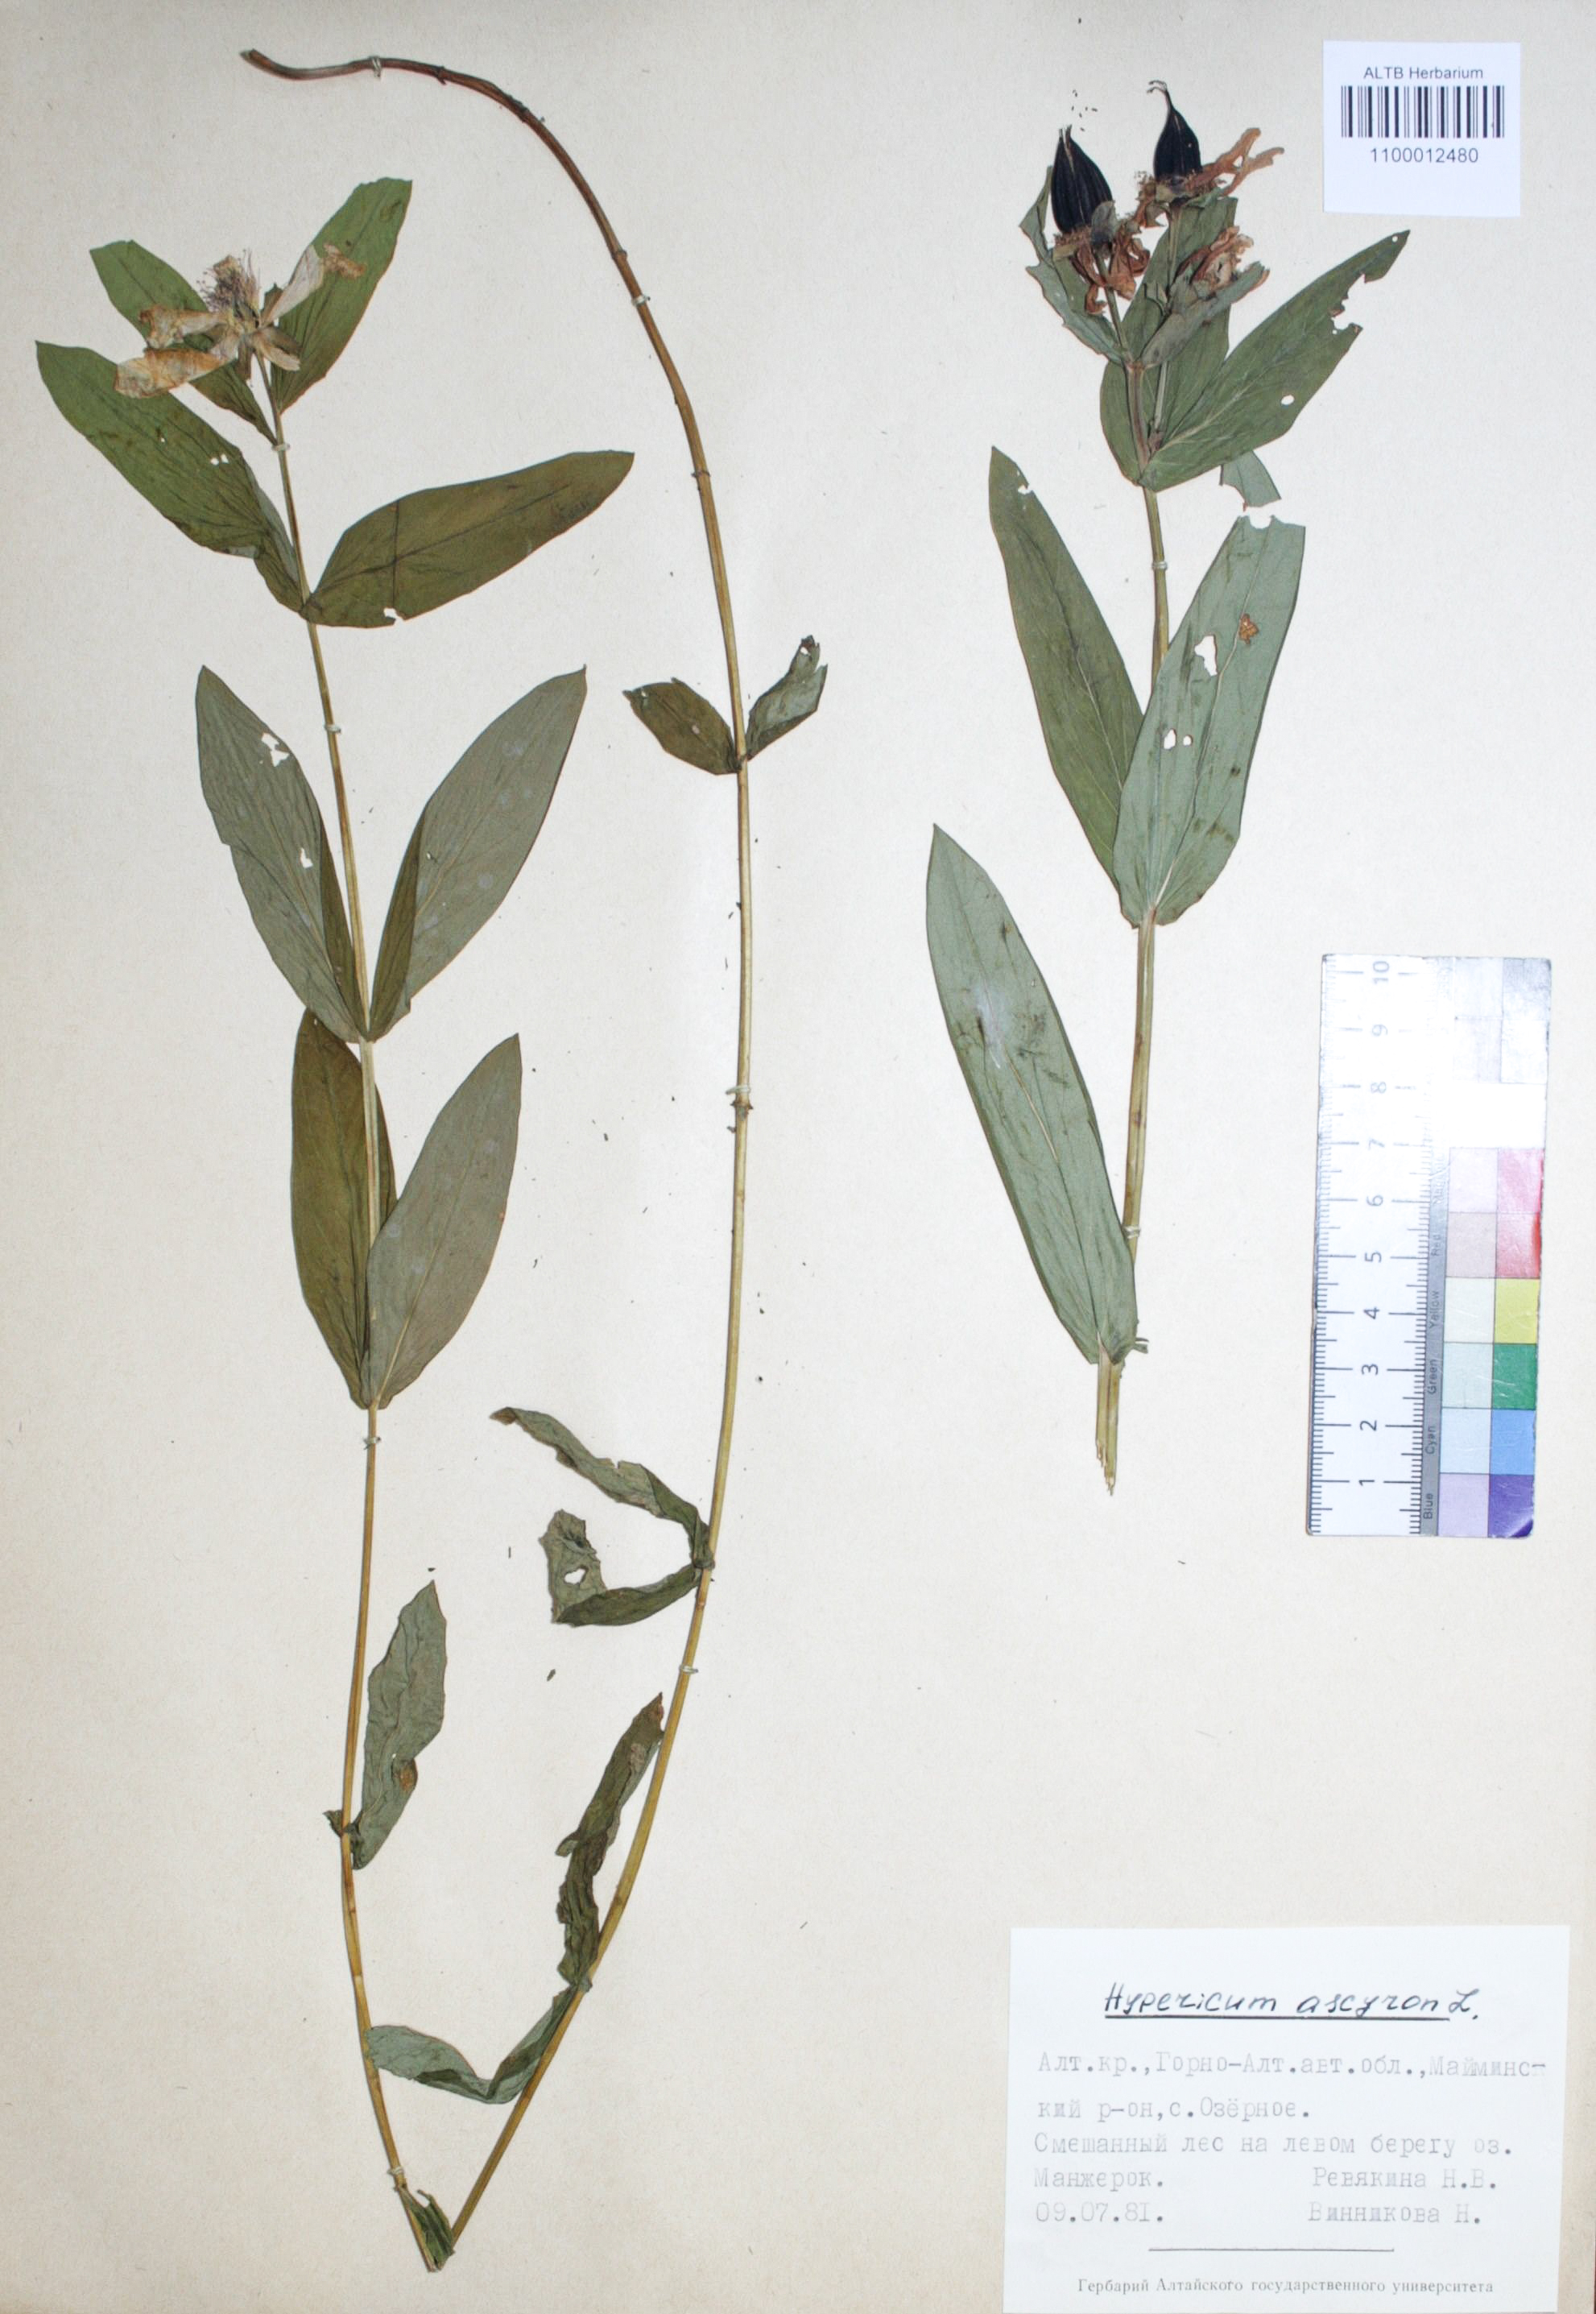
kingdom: Plantae
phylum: Tracheophyta
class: Magnoliopsida
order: Malpighiales
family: Hypericaceae
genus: Hypericum
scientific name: Hypericum ascyron
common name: Giant st. john's-wort
